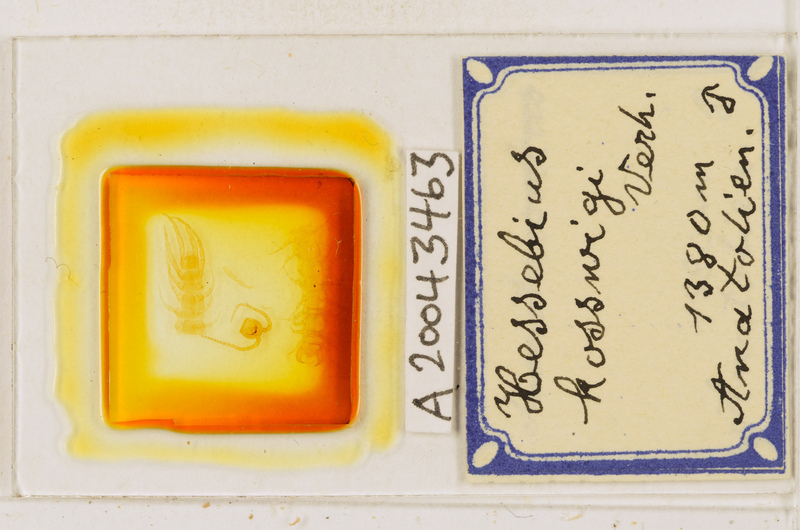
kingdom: Animalia
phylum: Arthropoda
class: Chilopoda
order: Lithobiomorpha
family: Lithobiidae
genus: Hessebius
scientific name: Hessebius barbipes
